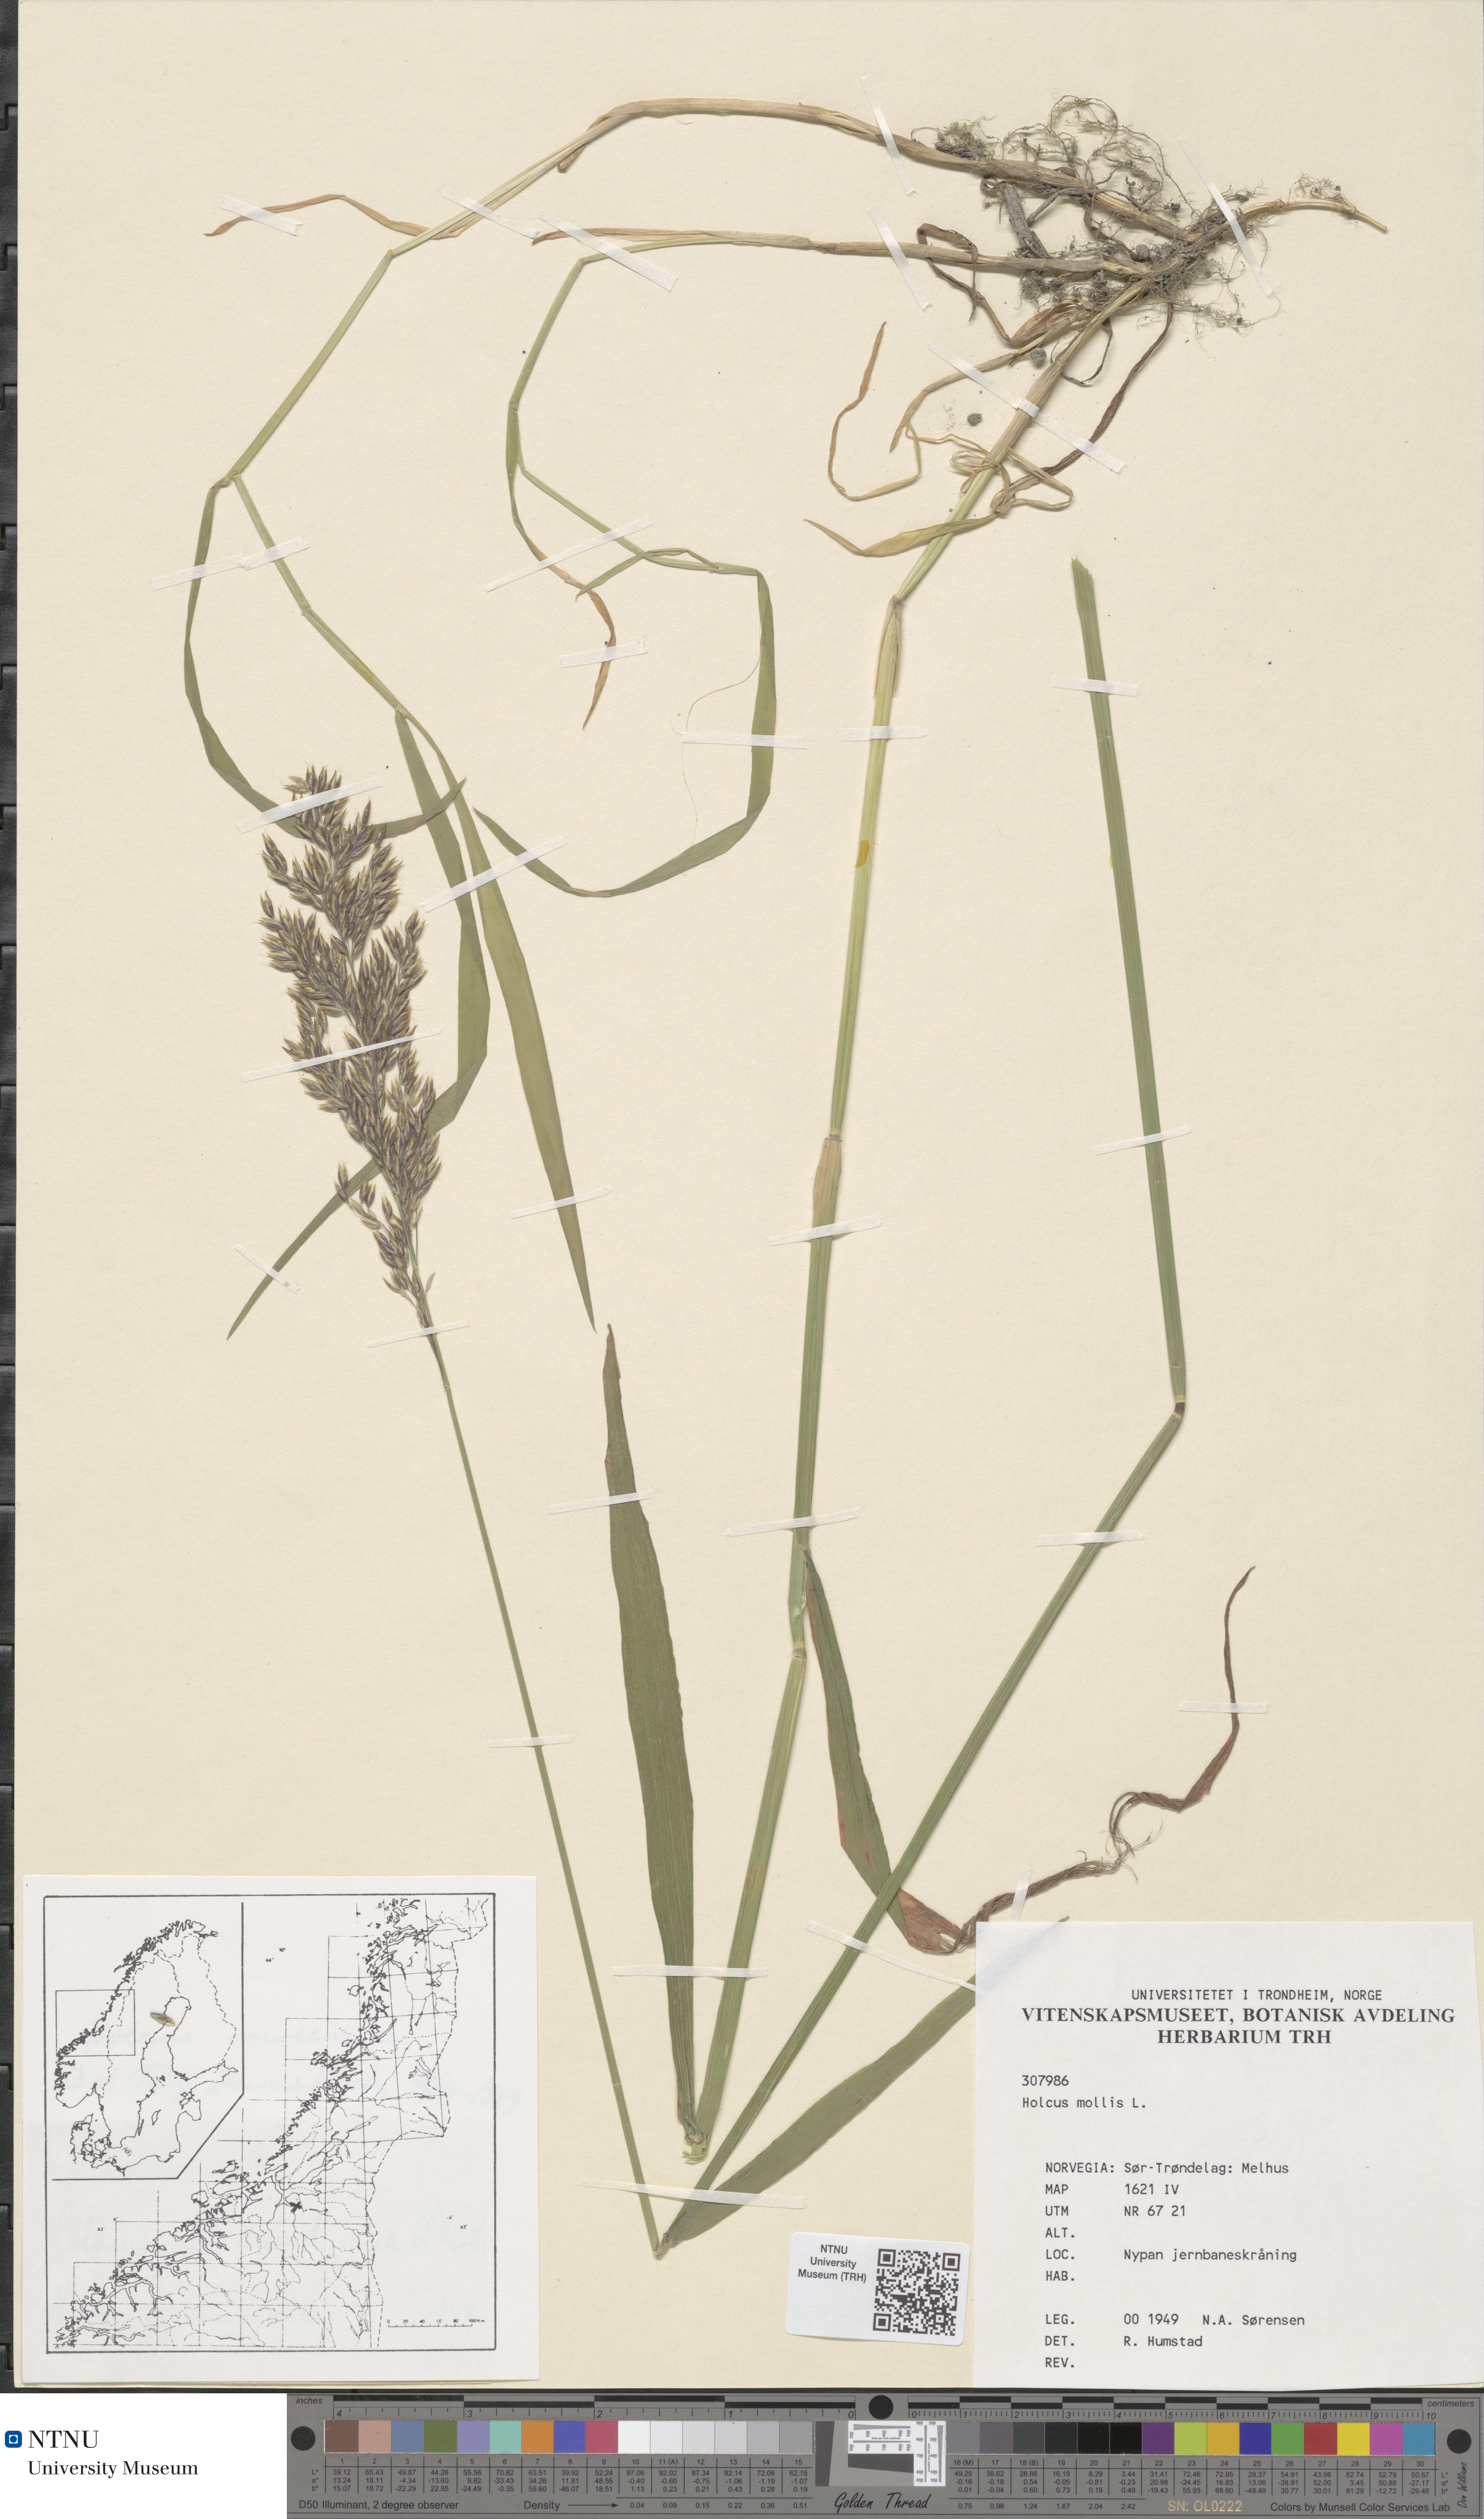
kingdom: Plantae
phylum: Tracheophyta
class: Liliopsida
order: Poales
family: Poaceae
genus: Holcus
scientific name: Holcus mollis
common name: Creeping velvetgrass
